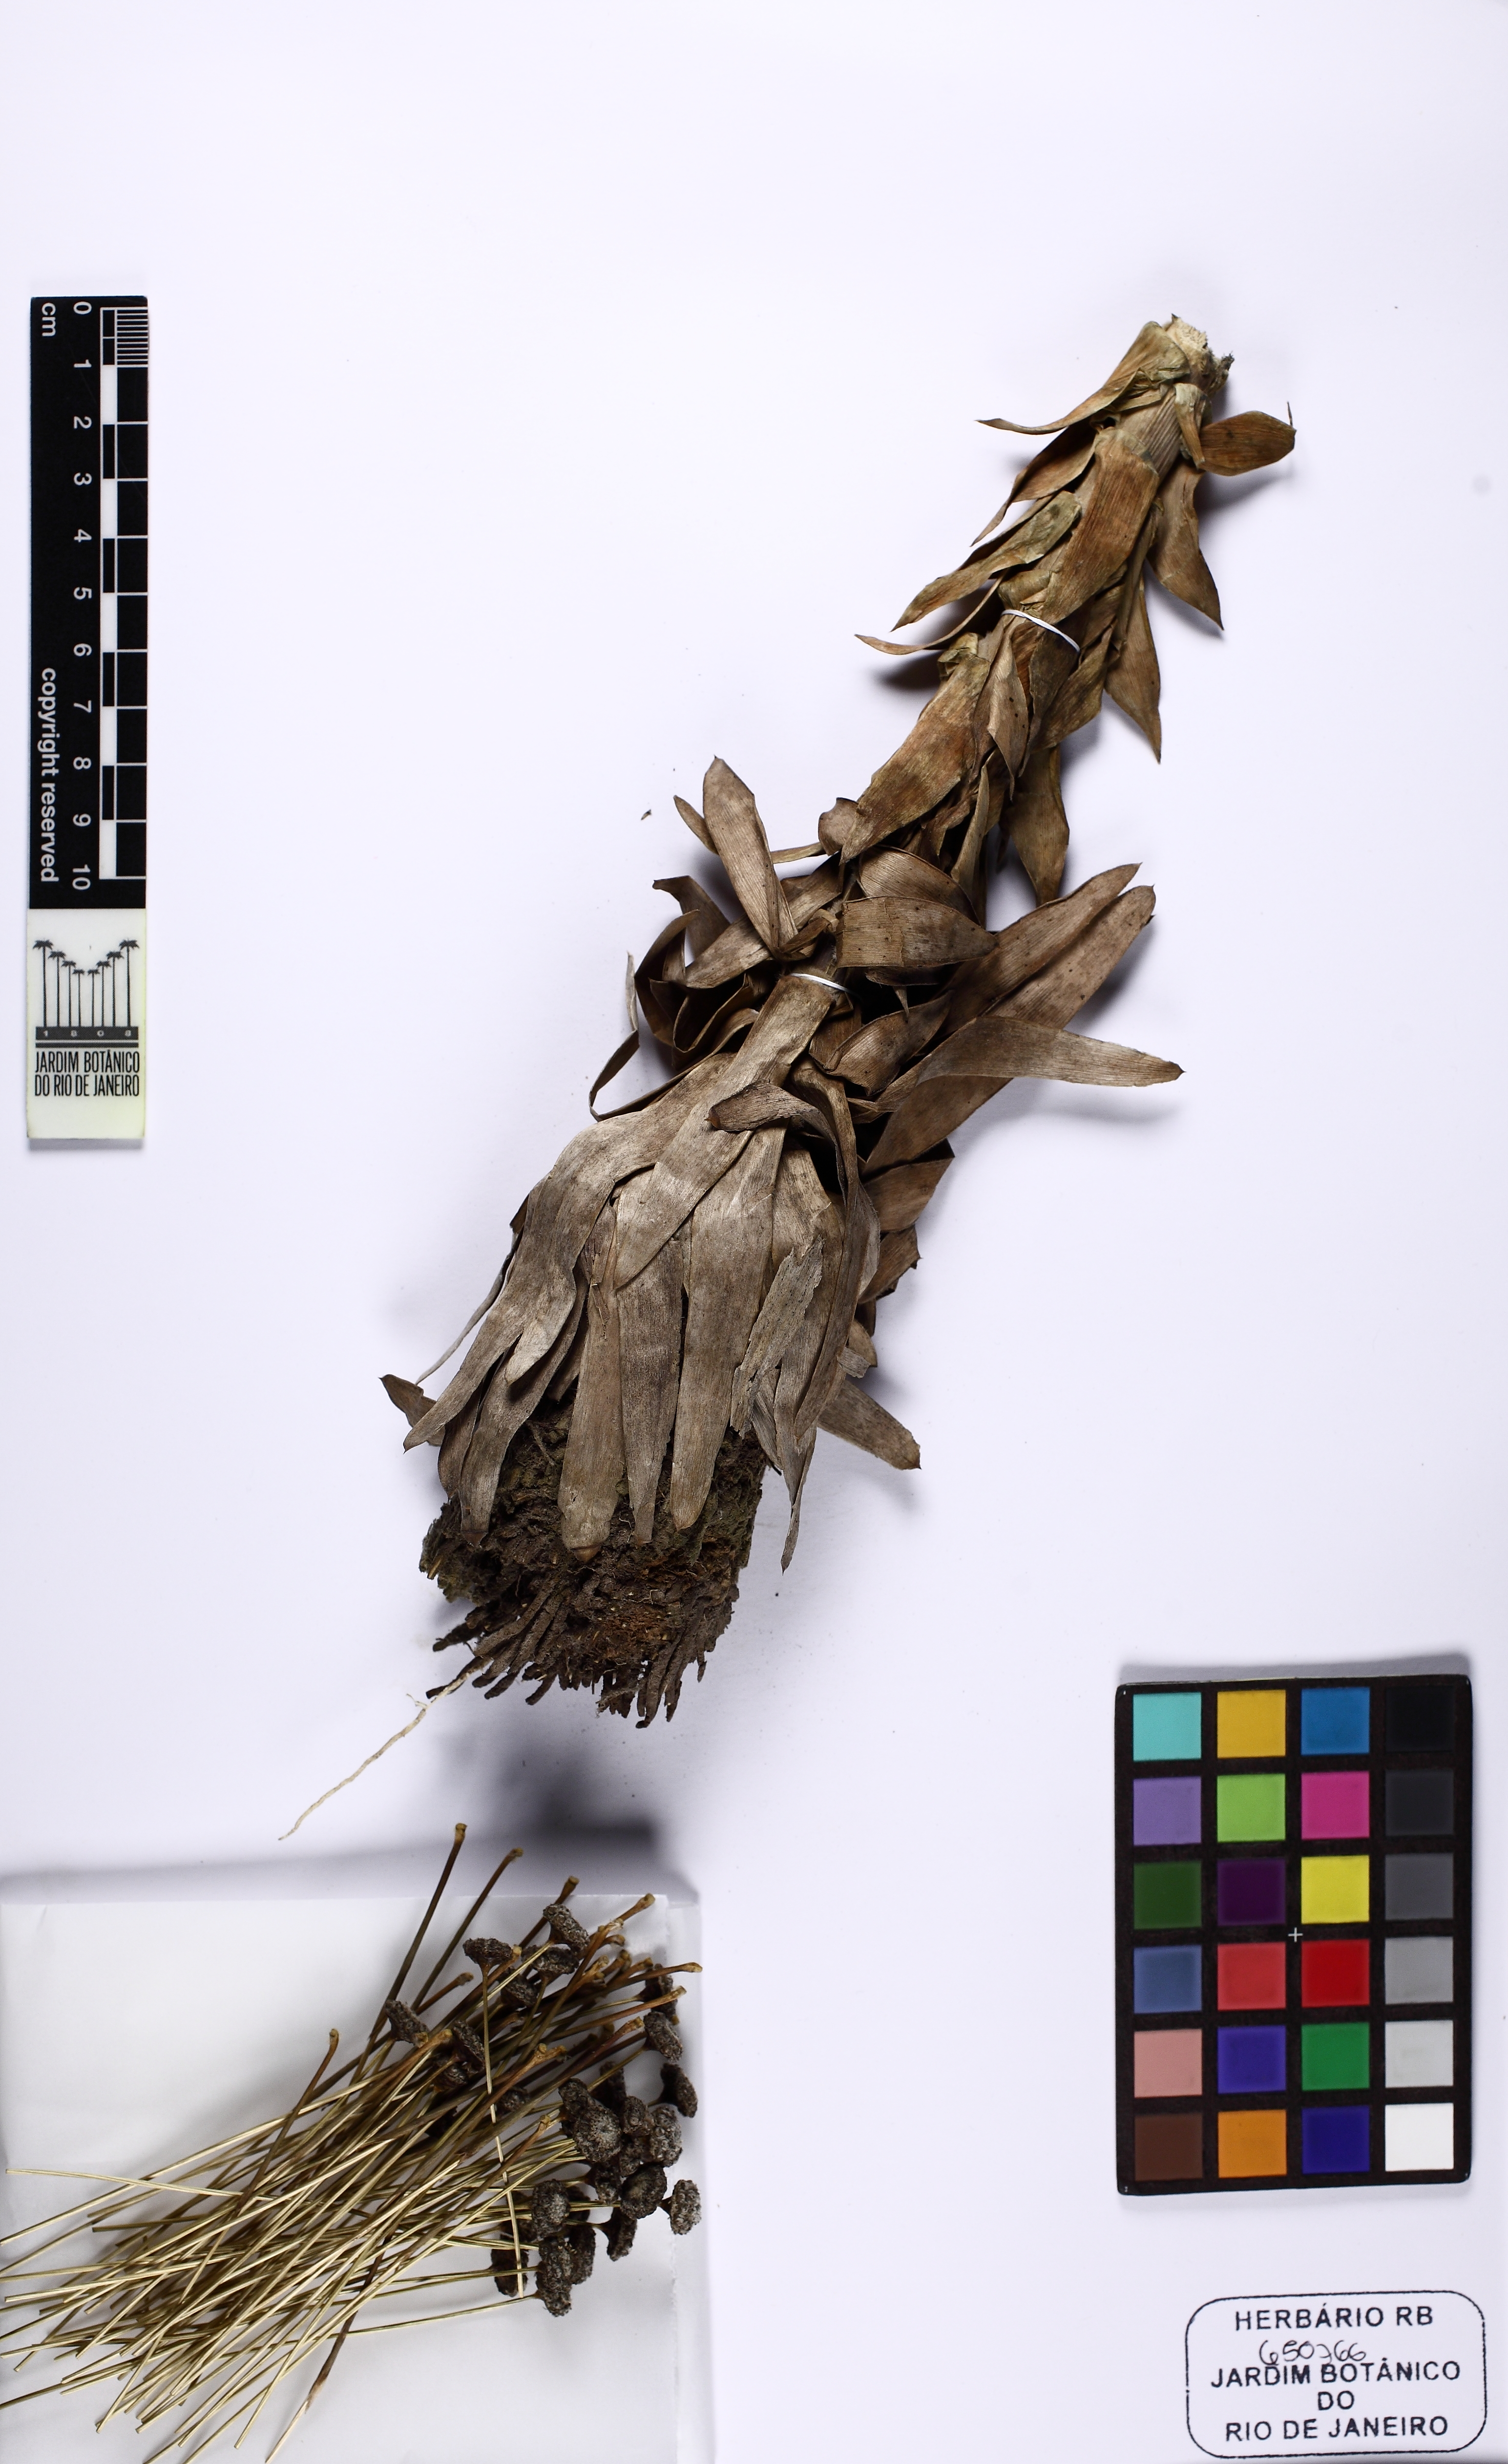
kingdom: Plantae
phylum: Tracheophyta
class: Liliopsida
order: Poales
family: Eriocaulaceae
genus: Paepalanthus
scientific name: Paepalanthus cordatus
